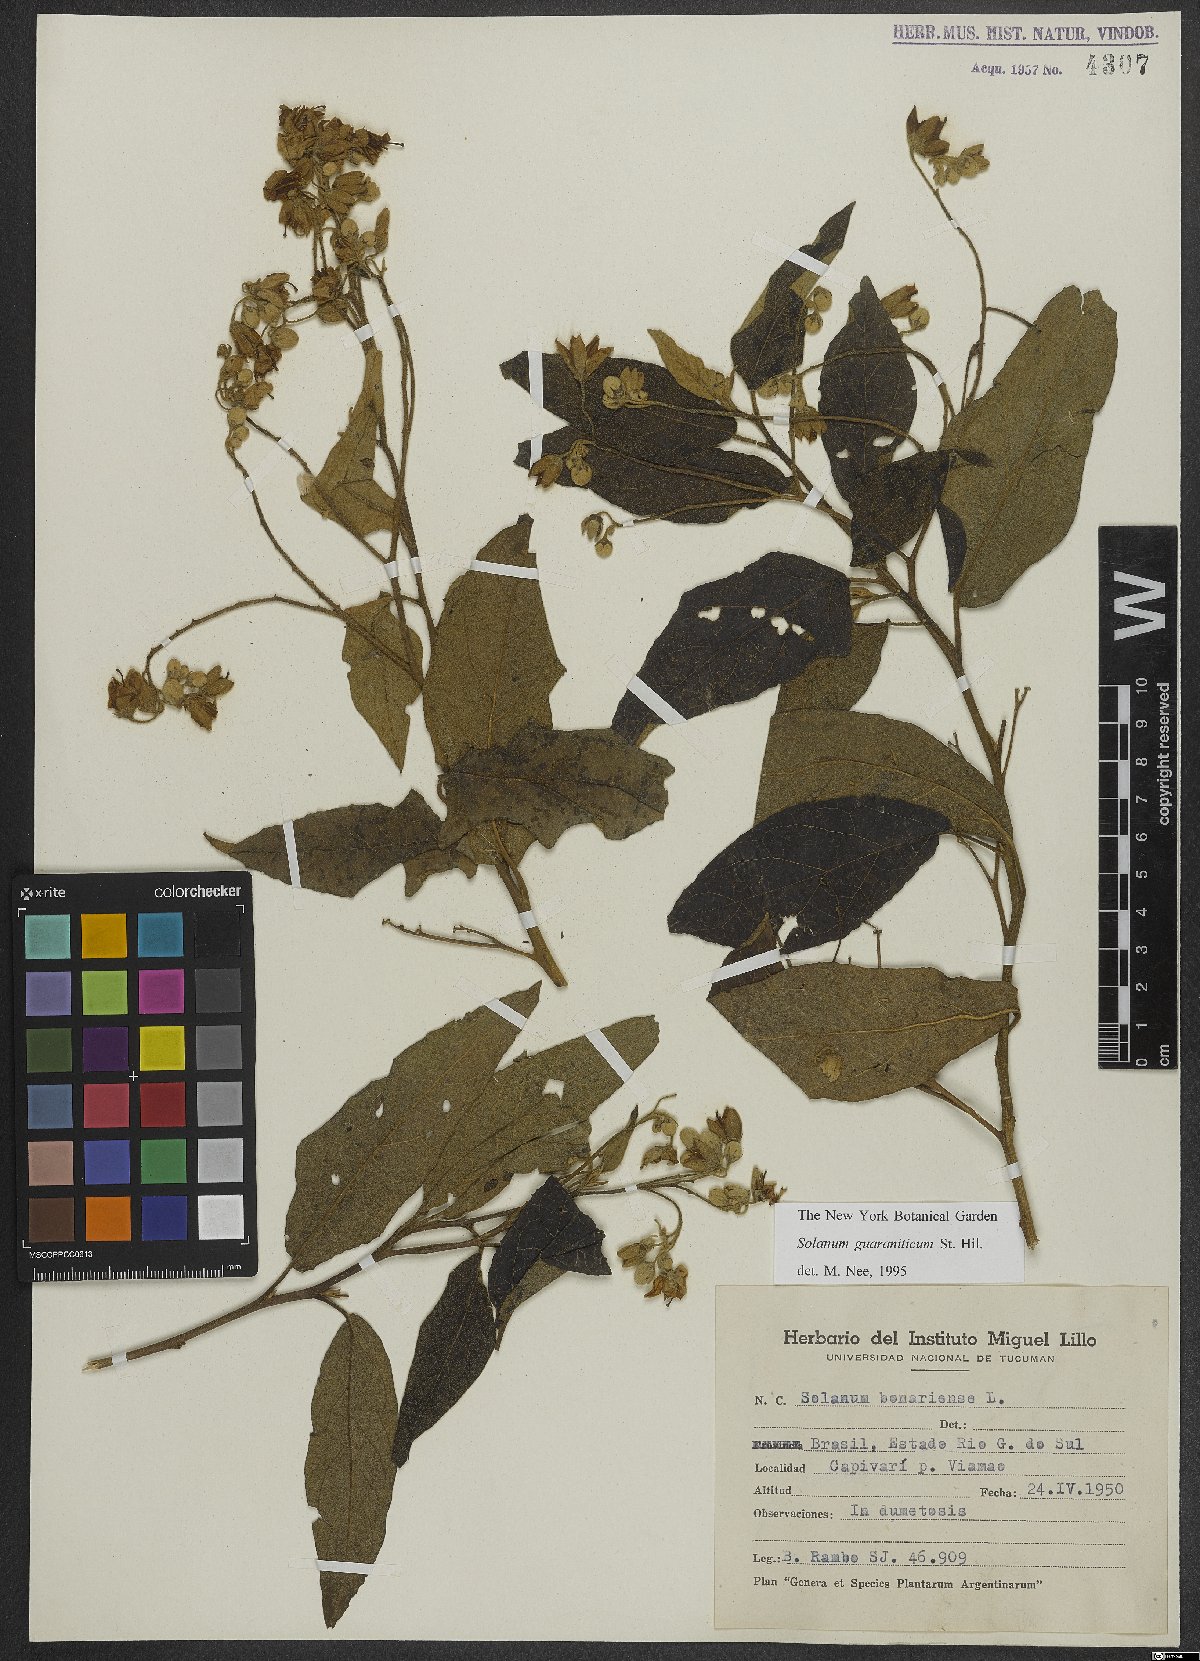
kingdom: Plantae
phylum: Tracheophyta
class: Magnoliopsida
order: Solanales
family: Solanaceae
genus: Solanum
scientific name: Solanum guaraniticum
